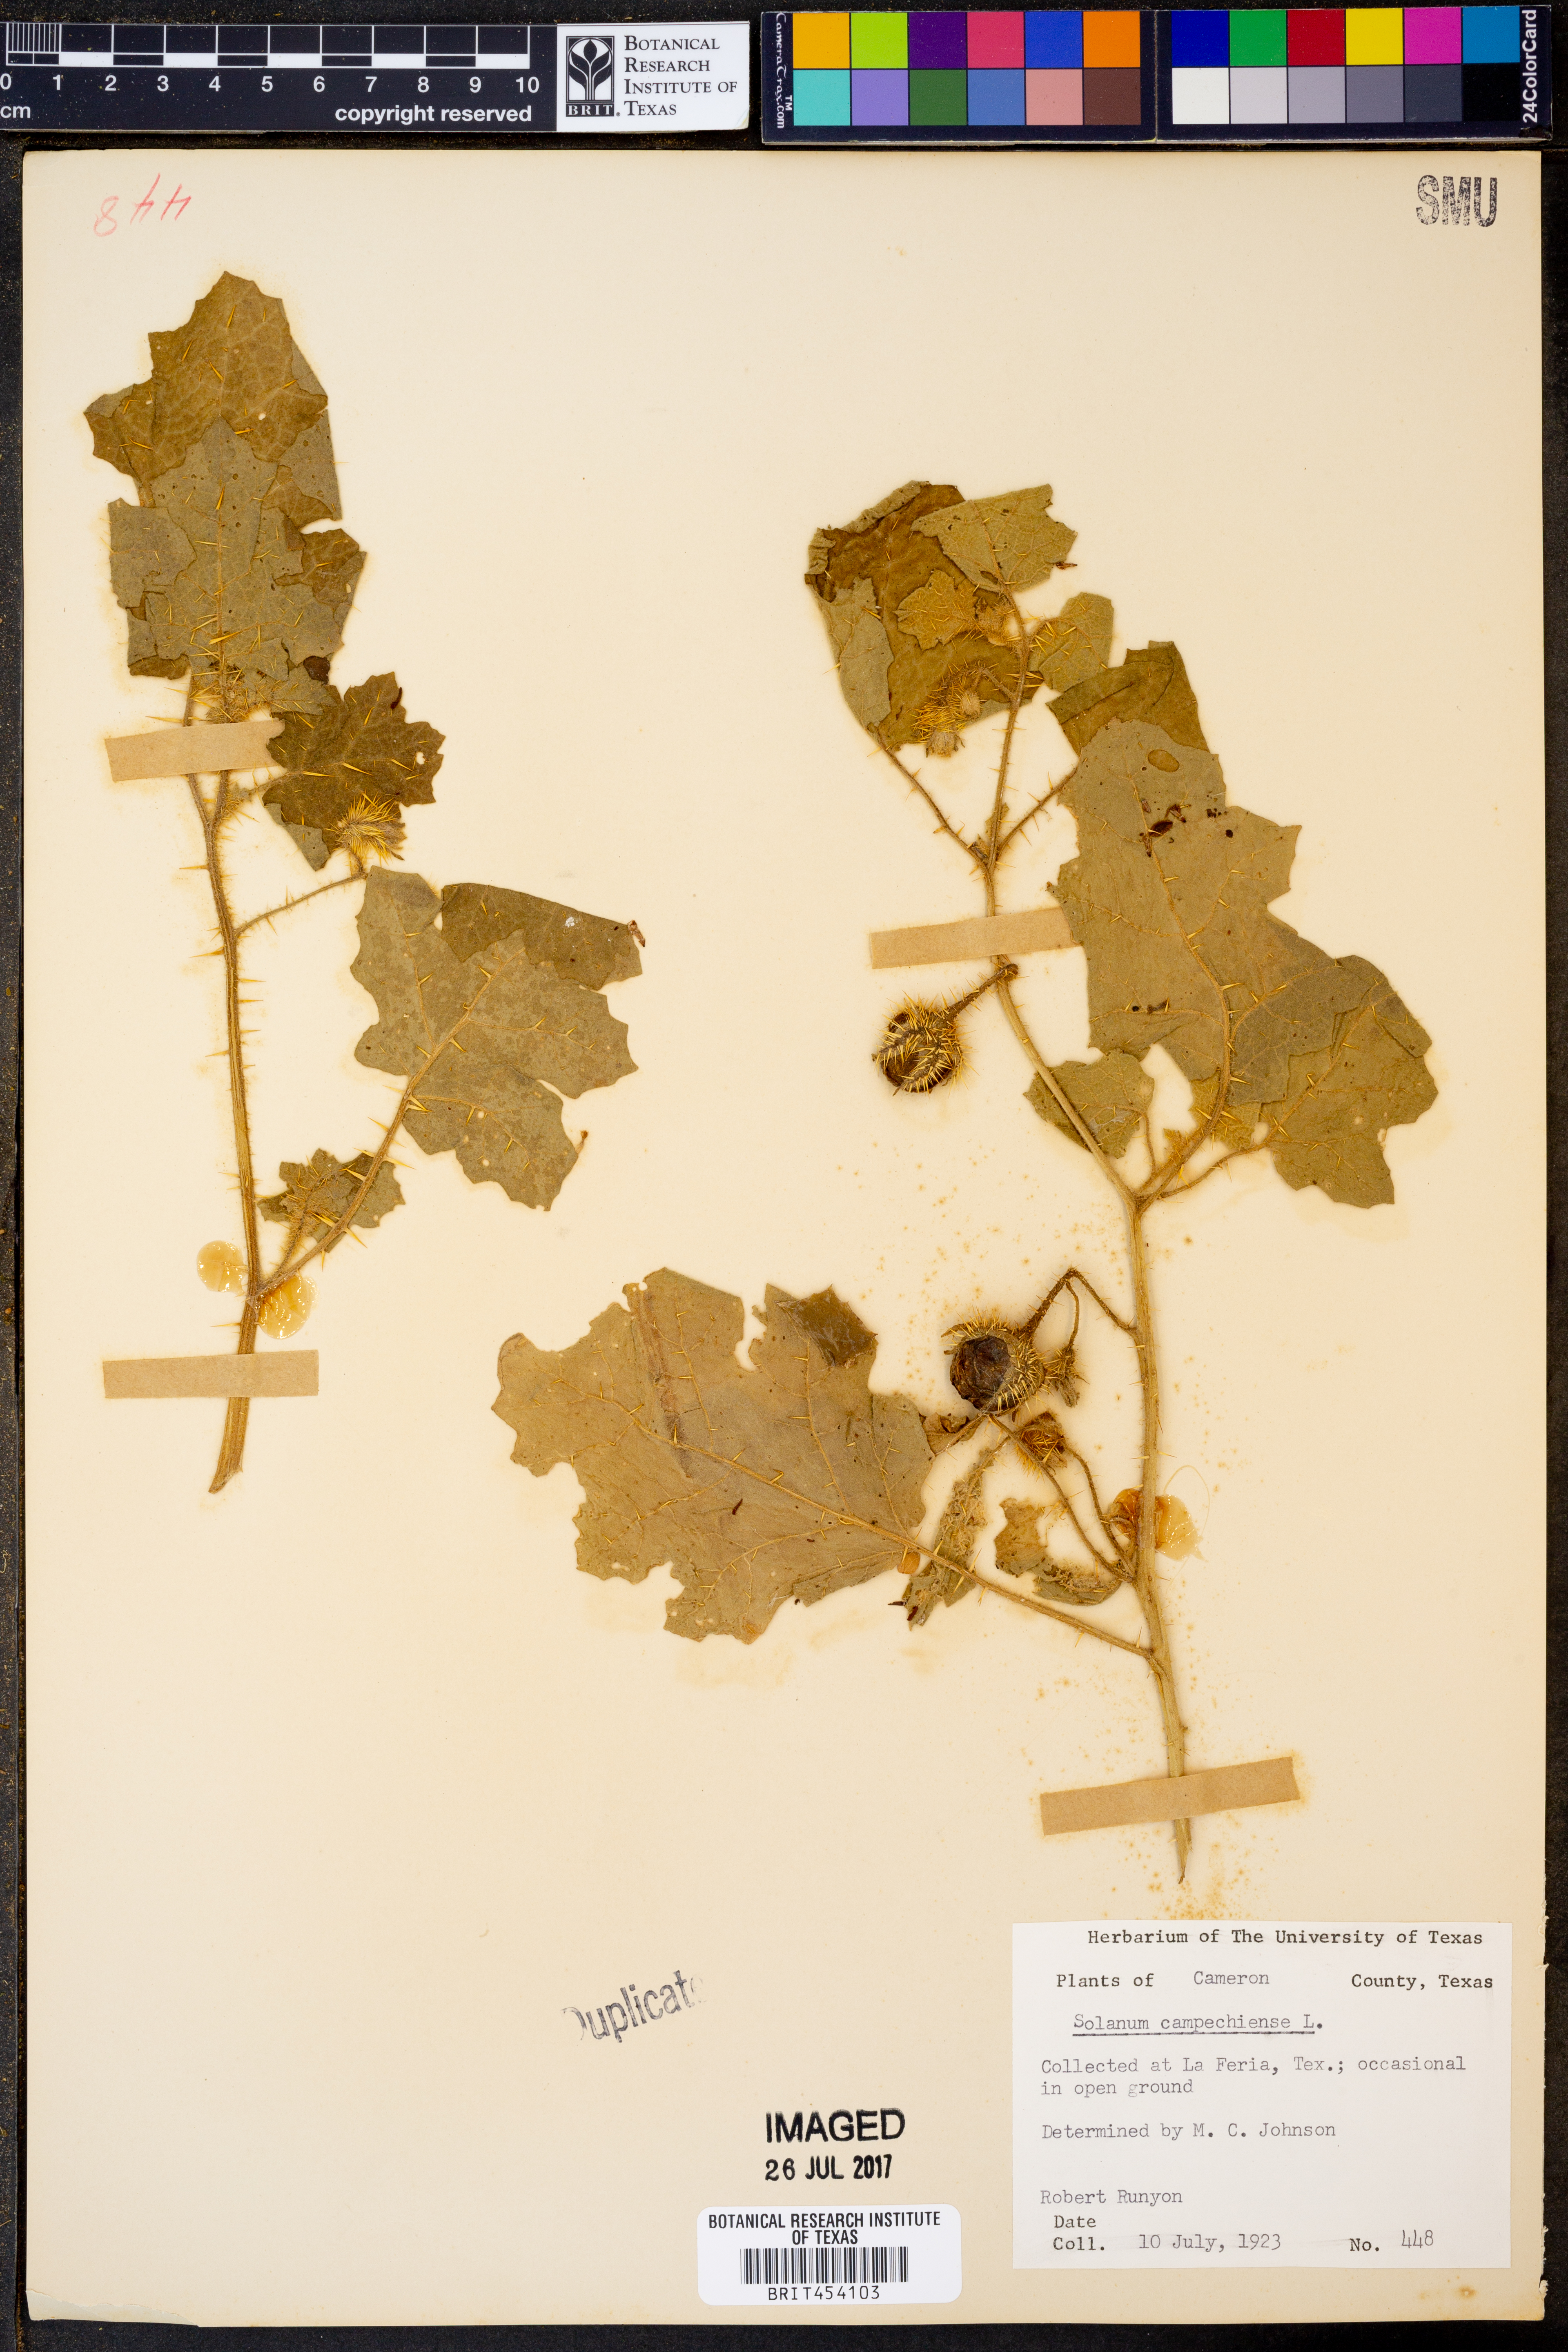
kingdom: Plantae
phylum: Tracheophyta
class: Magnoliopsida
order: Solanales
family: Solanaceae
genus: Solanum
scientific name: Solanum campechiense
